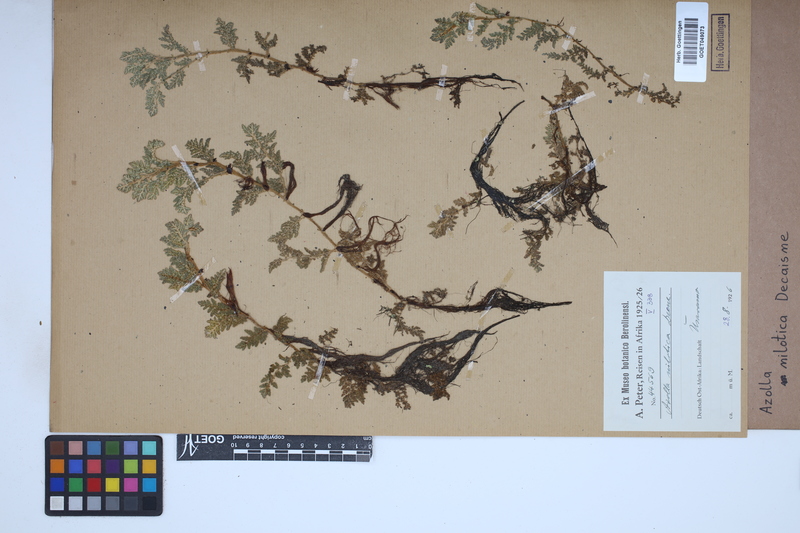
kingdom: Plantae
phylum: Tracheophyta
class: Polypodiopsida
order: Salviniales
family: Salviniaceae
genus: Azolla
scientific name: Azolla nilotica
